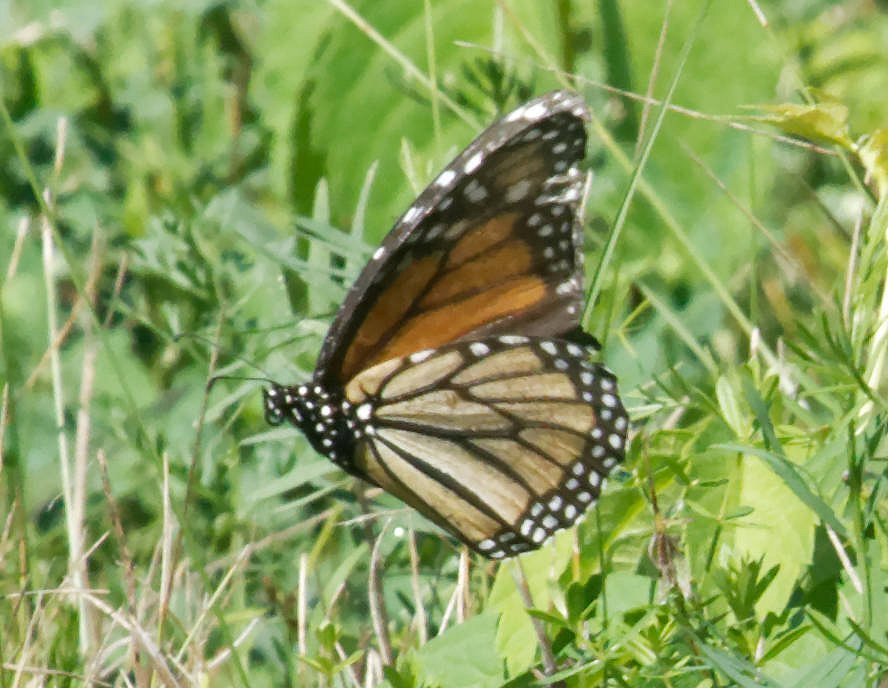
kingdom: Animalia
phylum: Arthropoda
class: Insecta
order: Lepidoptera
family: Nymphalidae
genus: Danaus
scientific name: Danaus plexippus
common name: Monarch
